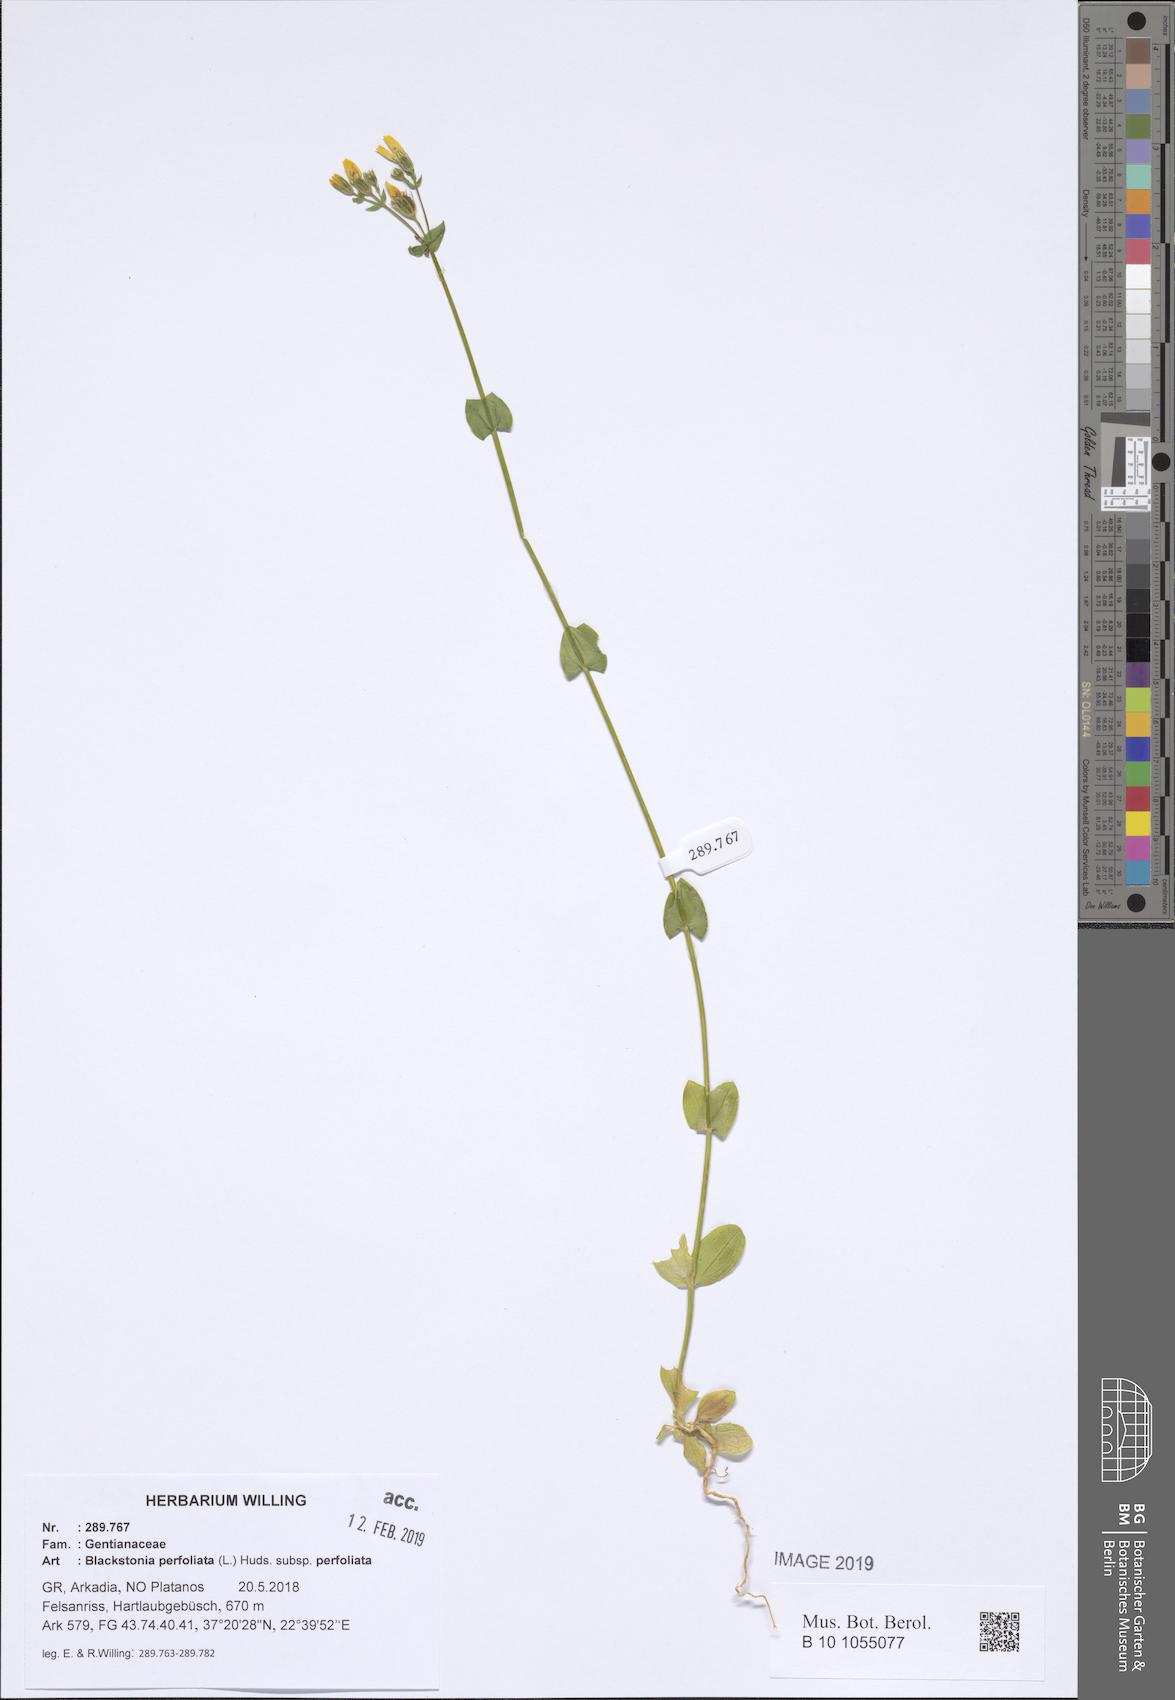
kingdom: Plantae
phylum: Tracheophyta
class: Magnoliopsida
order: Gentianales
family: Gentianaceae
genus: Blackstonia
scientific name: Blackstonia perfoliata
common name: Yellow-wort
